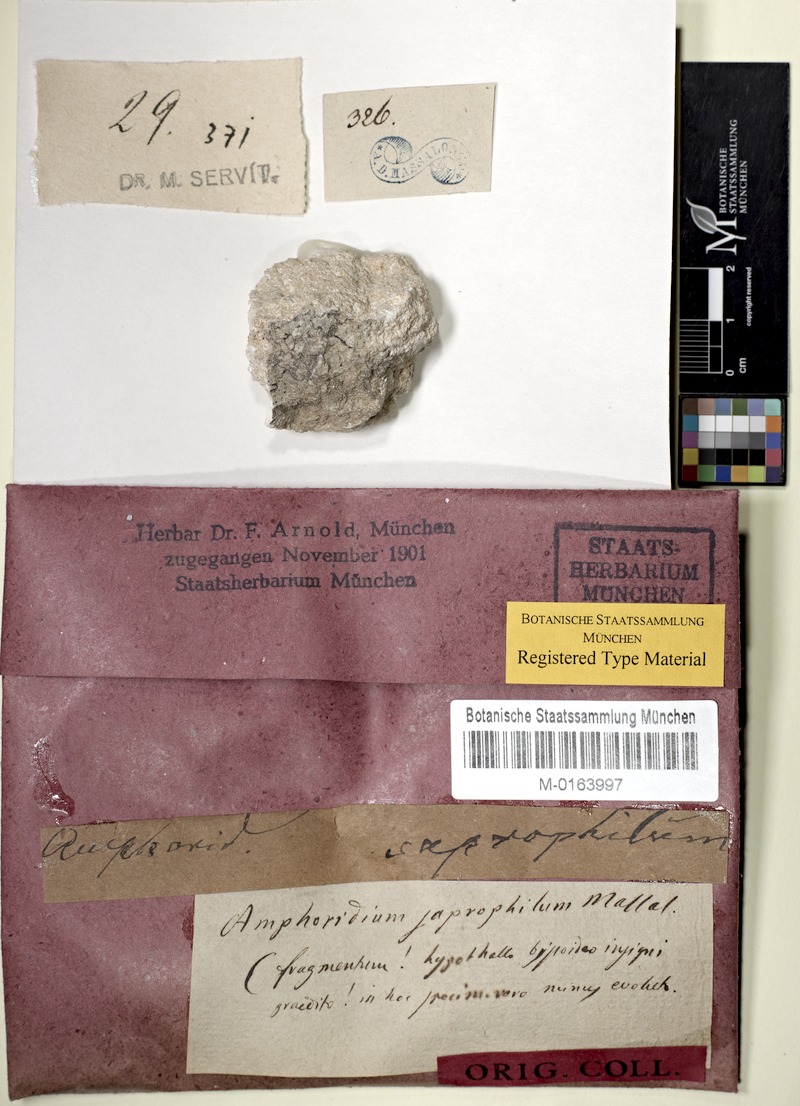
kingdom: Fungi
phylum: Ascomycota
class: Eurotiomycetes
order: Verrucariales
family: Verrucariaceae
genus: Verrucaria
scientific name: Verrucaria saprophila
